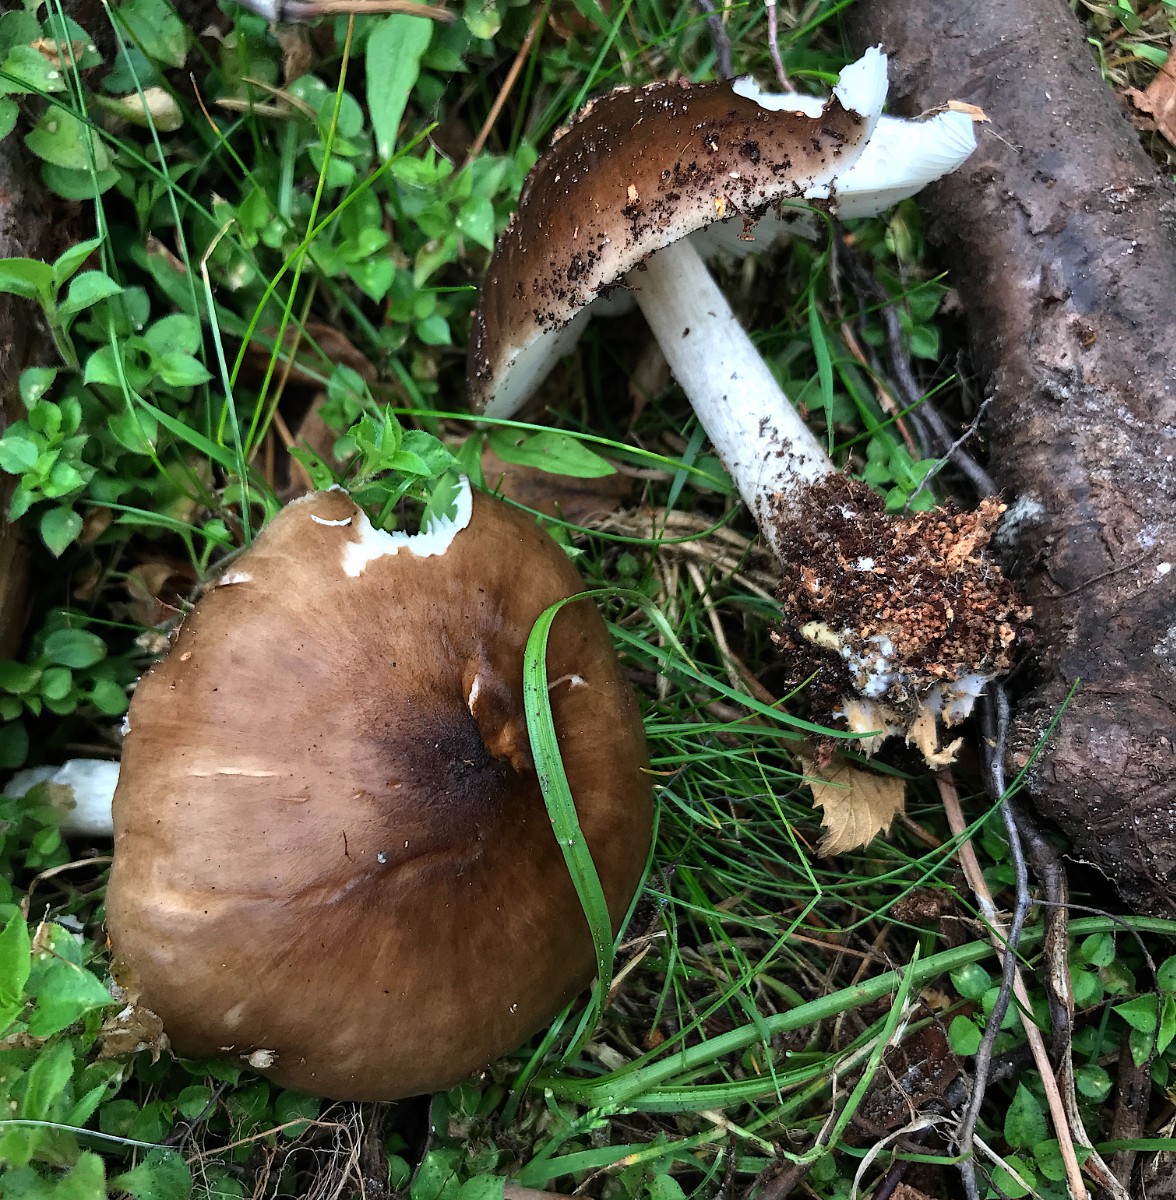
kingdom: Fungi
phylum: Basidiomycota
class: Agaricomycetes
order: Agaricales
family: Pluteaceae
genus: Pluteus
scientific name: Pluteus cervinus
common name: sodfarvet skærmhat
